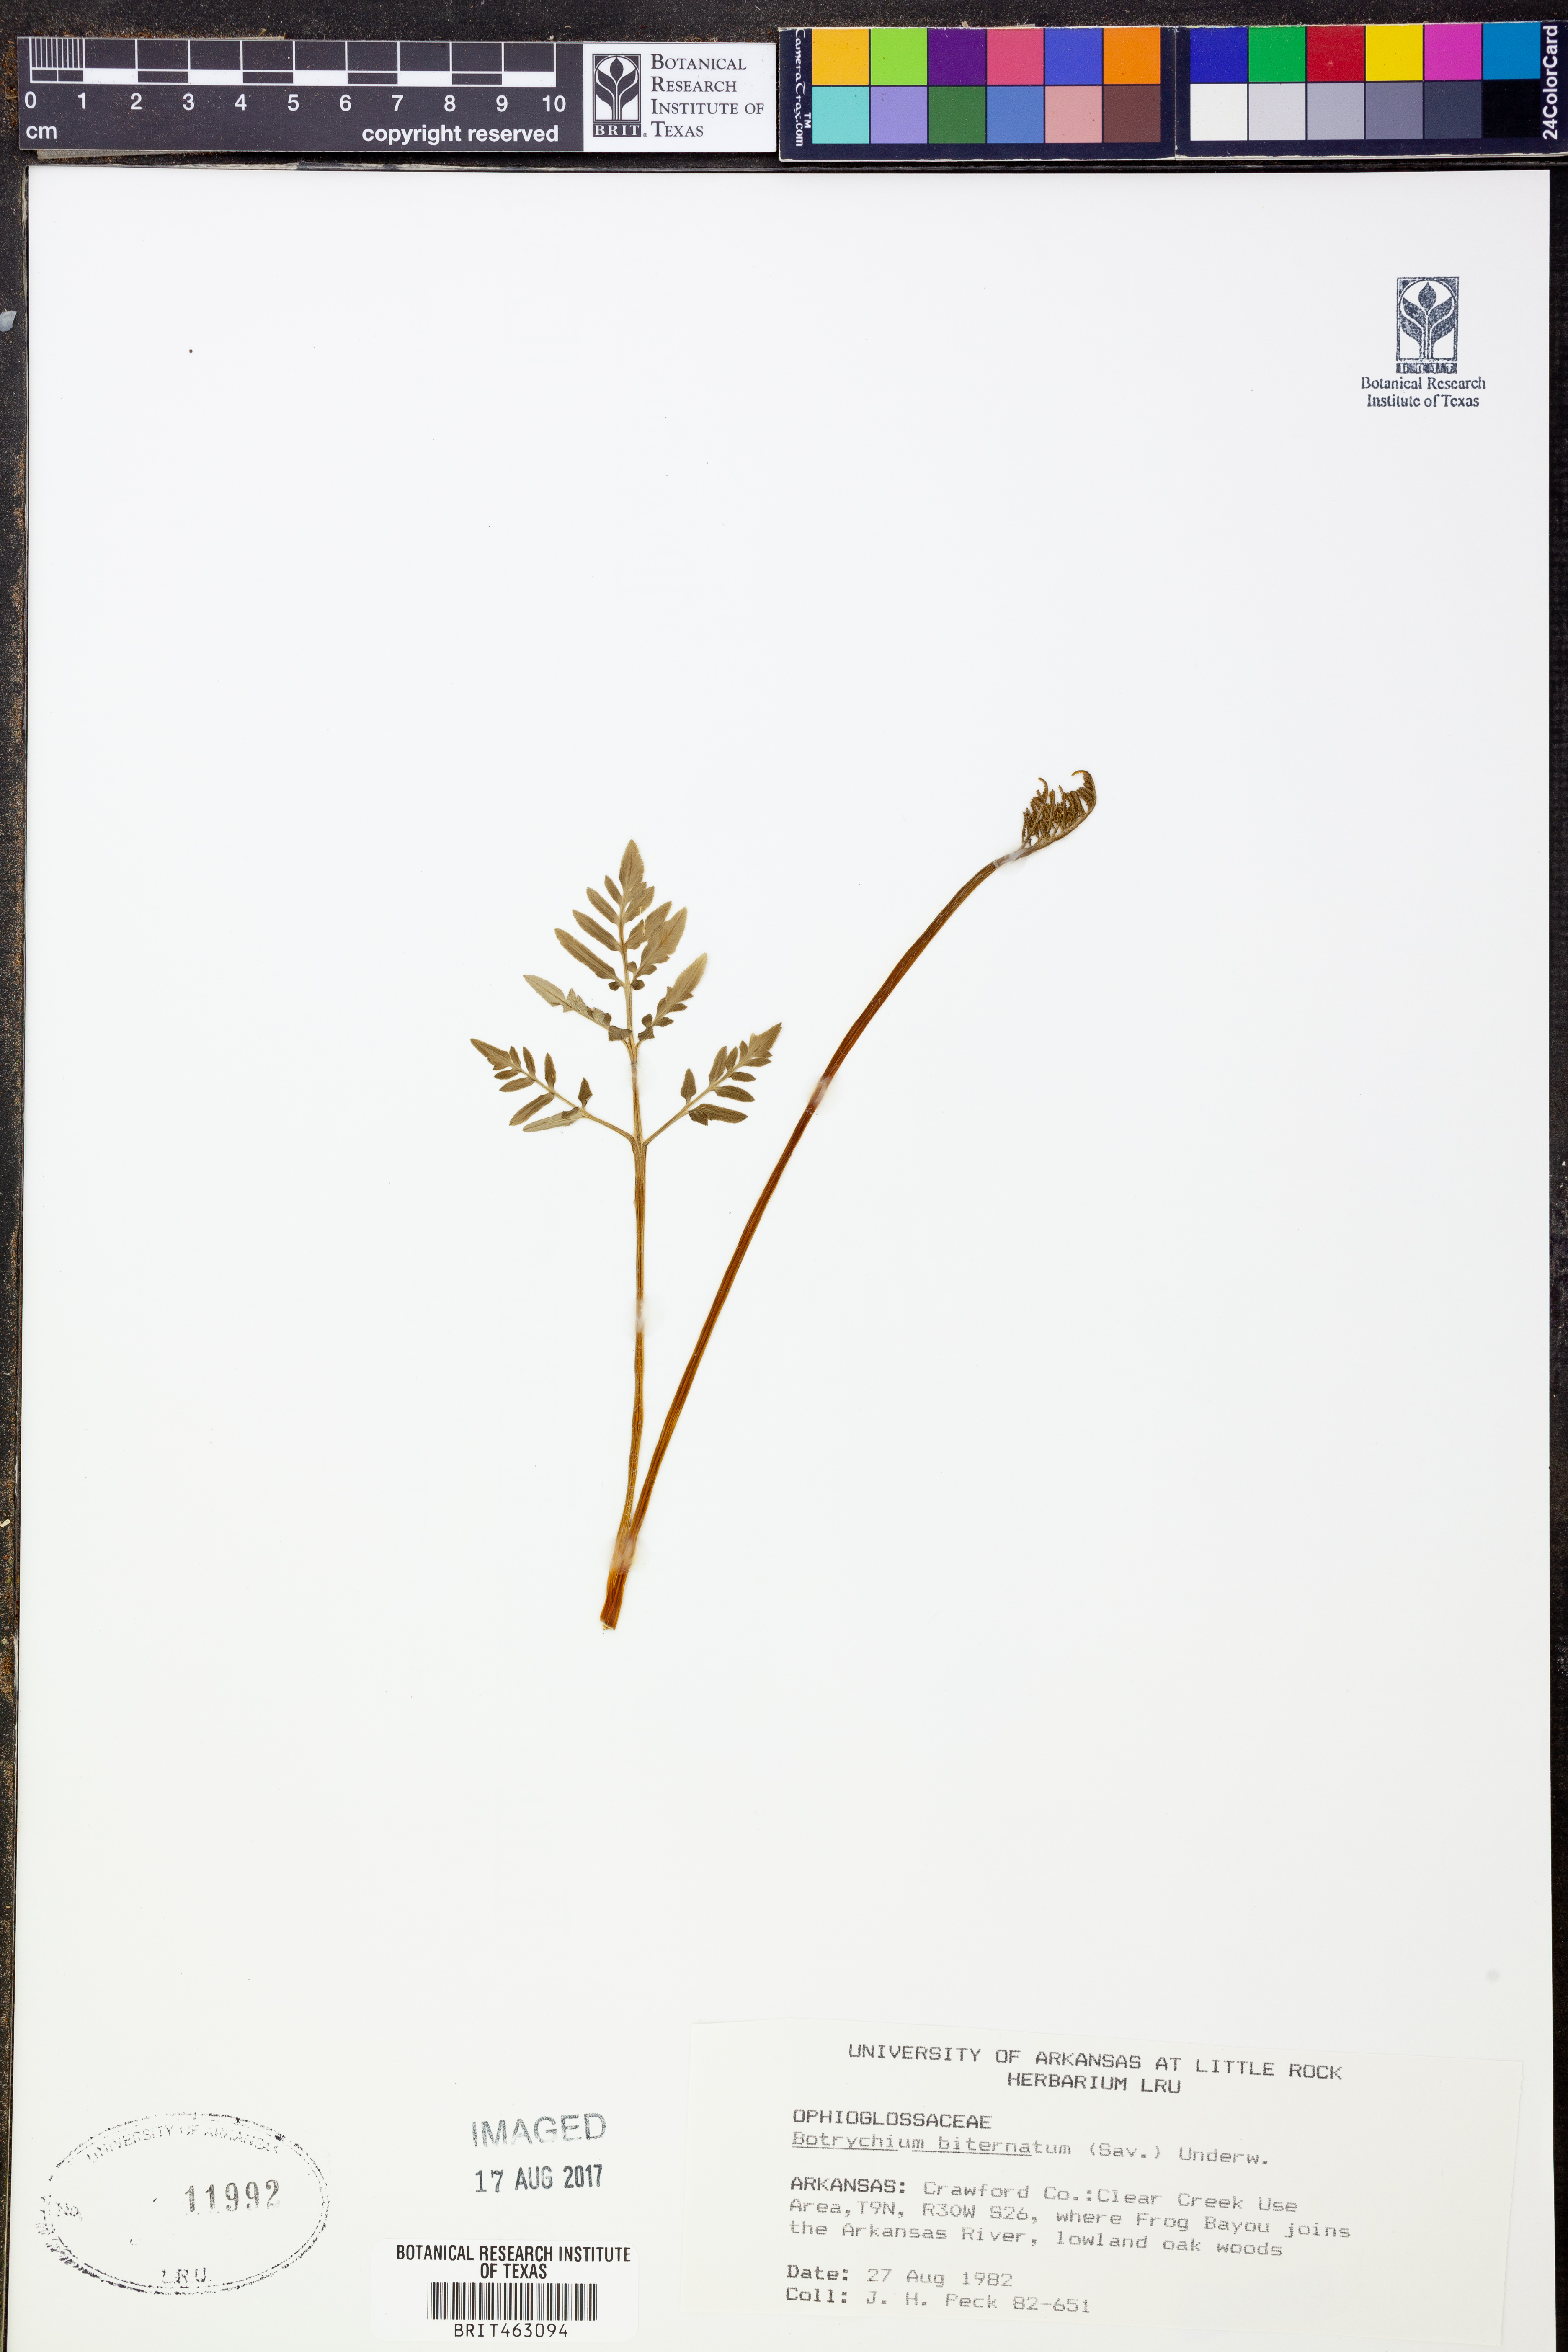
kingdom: Plantae
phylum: Tracheophyta
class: Polypodiopsida
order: Ophioglossales
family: Ophioglossaceae
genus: Sceptridium
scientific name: Sceptridium biternatum
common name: Sparse-lobed grapefern
